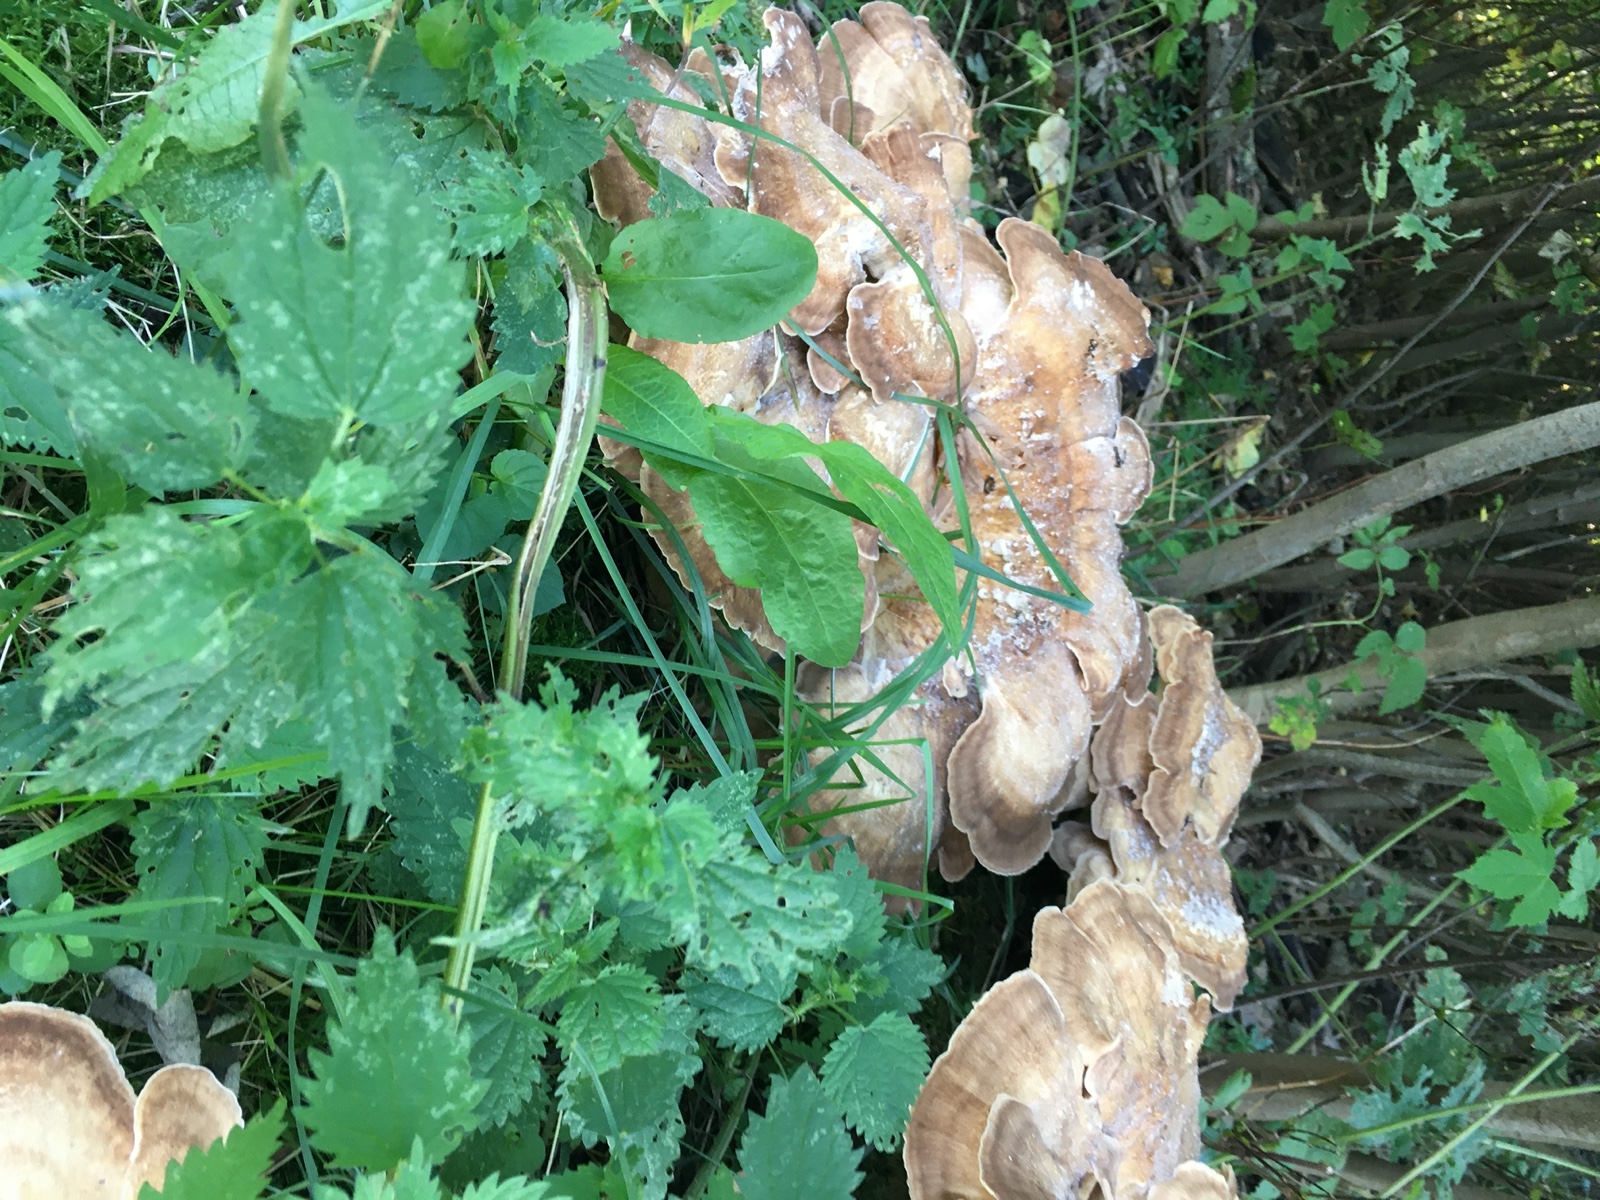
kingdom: Fungi
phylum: Basidiomycota
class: Agaricomycetes
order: Polyporales
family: Meripilaceae
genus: Meripilus
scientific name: Meripilus giganteus
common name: kæmpeporesvamp
